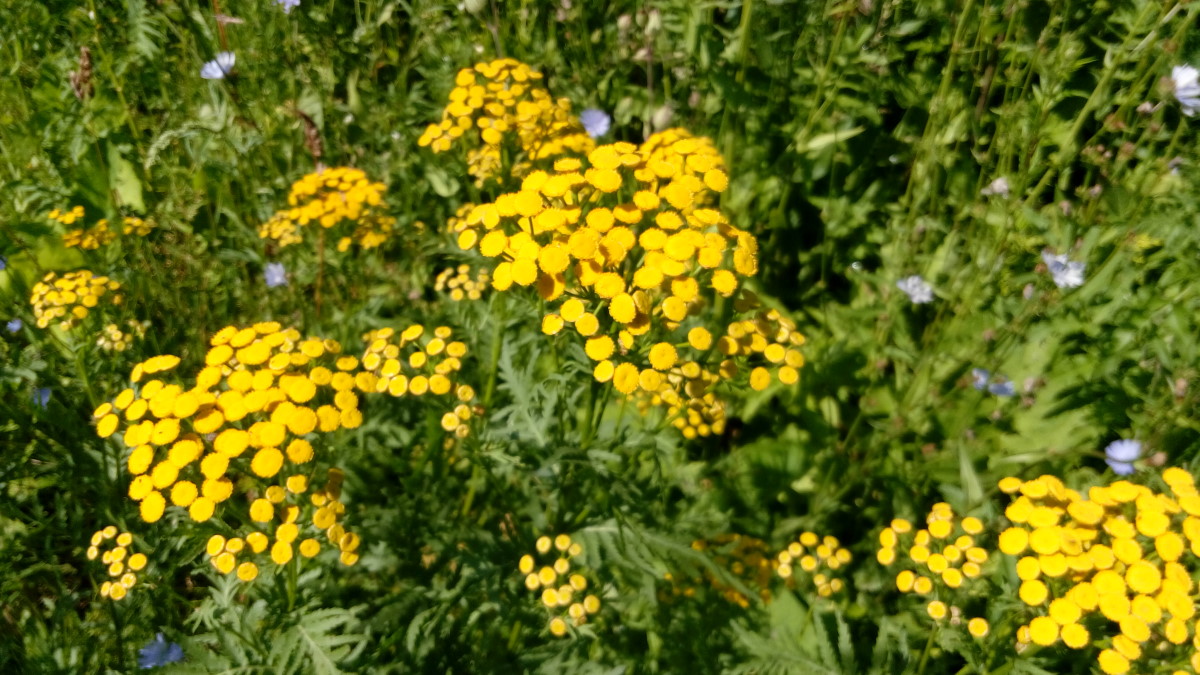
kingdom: Plantae
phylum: Tracheophyta
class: Magnoliopsida
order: Asterales
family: Asteraceae
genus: Tanacetum
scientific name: Tanacetum vulgare
